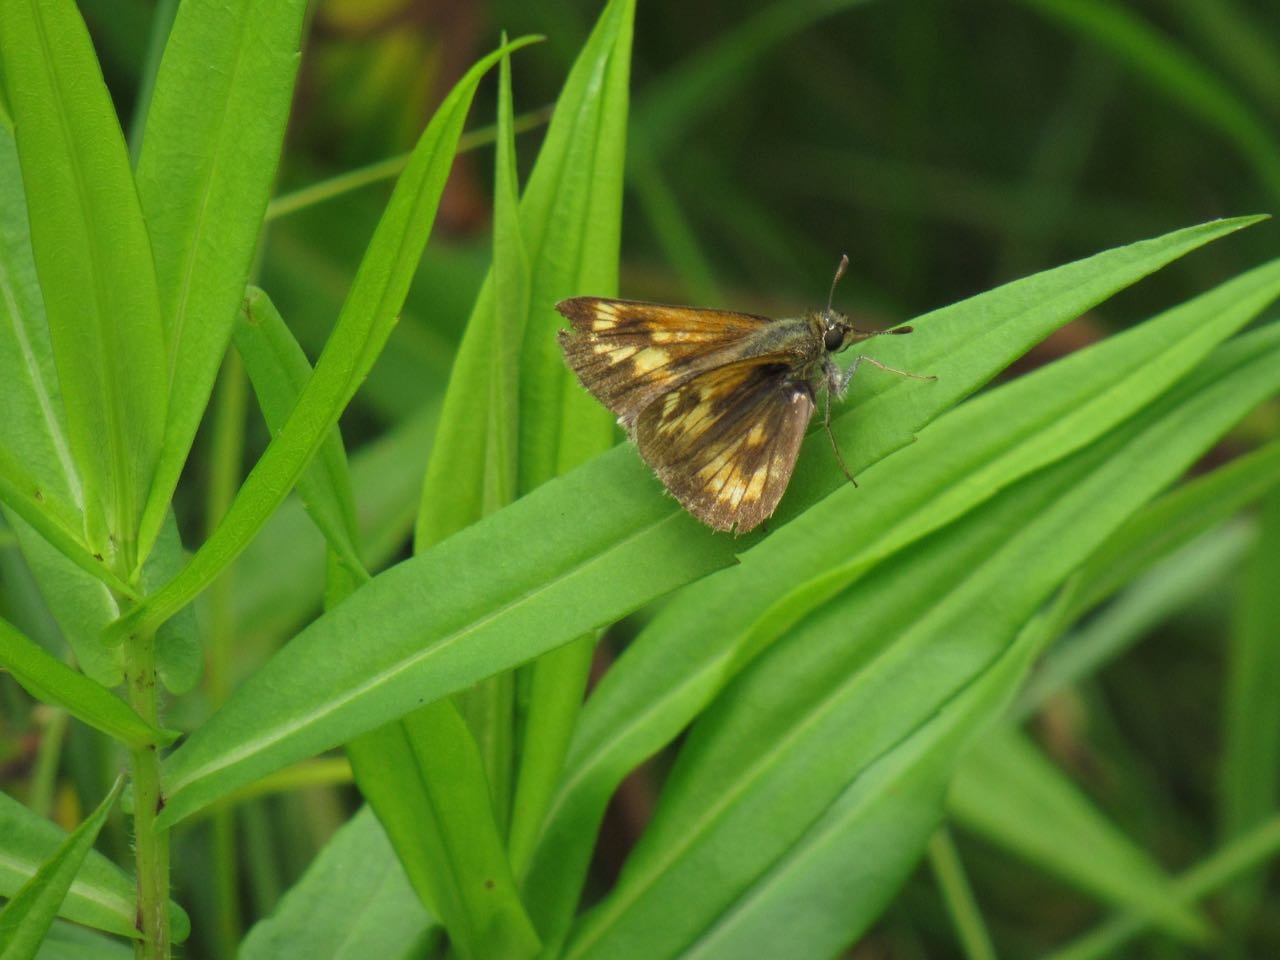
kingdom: Animalia
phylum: Arthropoda
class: Insecta
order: Lepidoptera
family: Hesperiidae
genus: Polites
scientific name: Polites
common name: Long Dash Skipper
